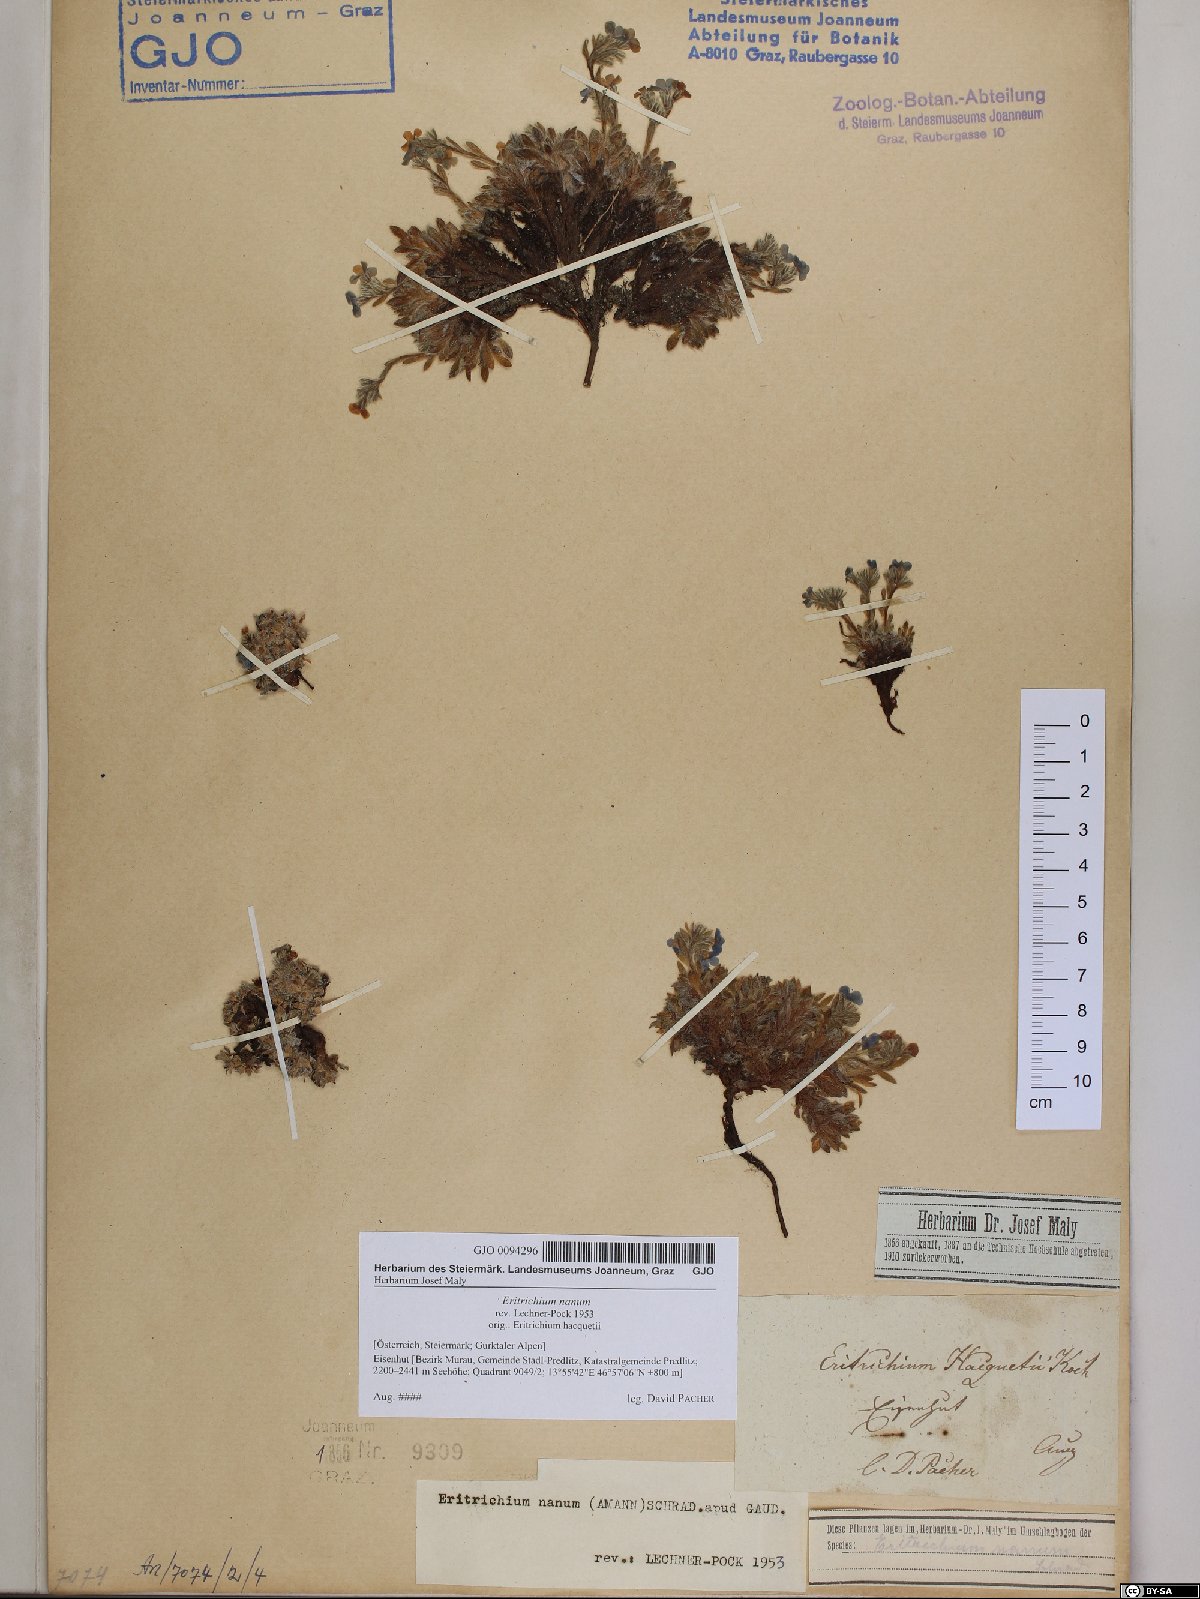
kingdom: Plantae
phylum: Tracheophyta
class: Magnoliopsida
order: Boraginales
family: Boraginaceae
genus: Eritrichium
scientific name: Eritrichium nanum
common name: King-of-the-alps
